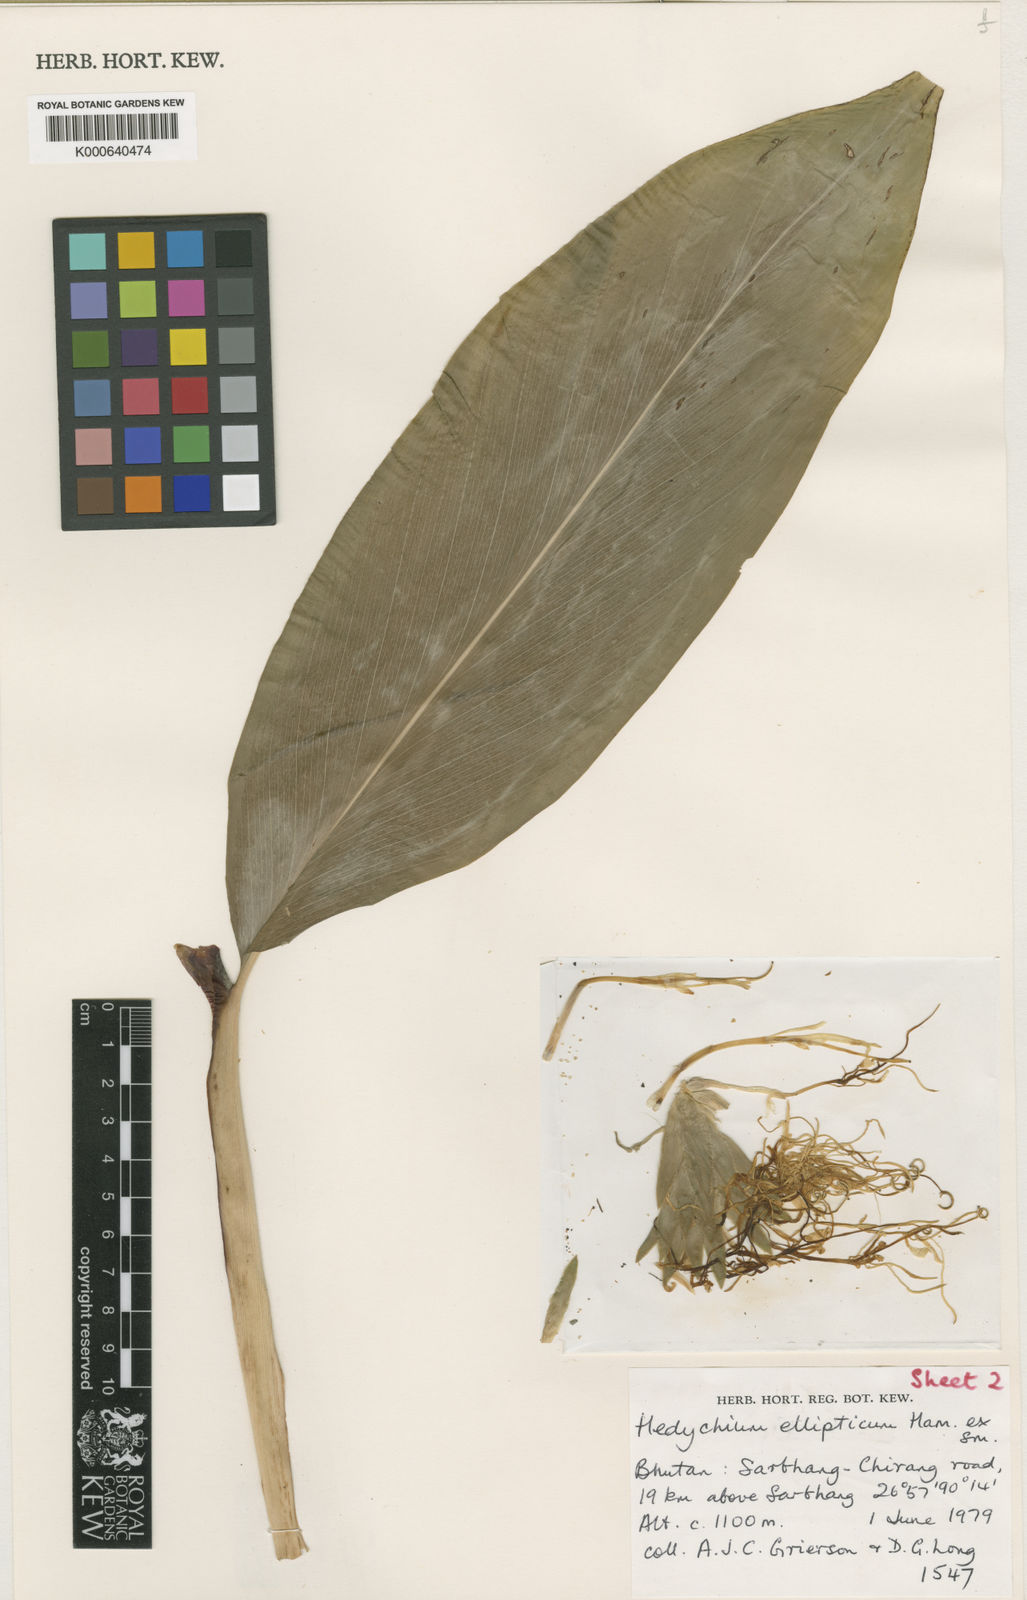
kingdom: Plantae
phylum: Tracheophyta
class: Liliopsida
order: Zingiberales
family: Zingiberaceae
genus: Hedychium
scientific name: Hedychium griersonianum
